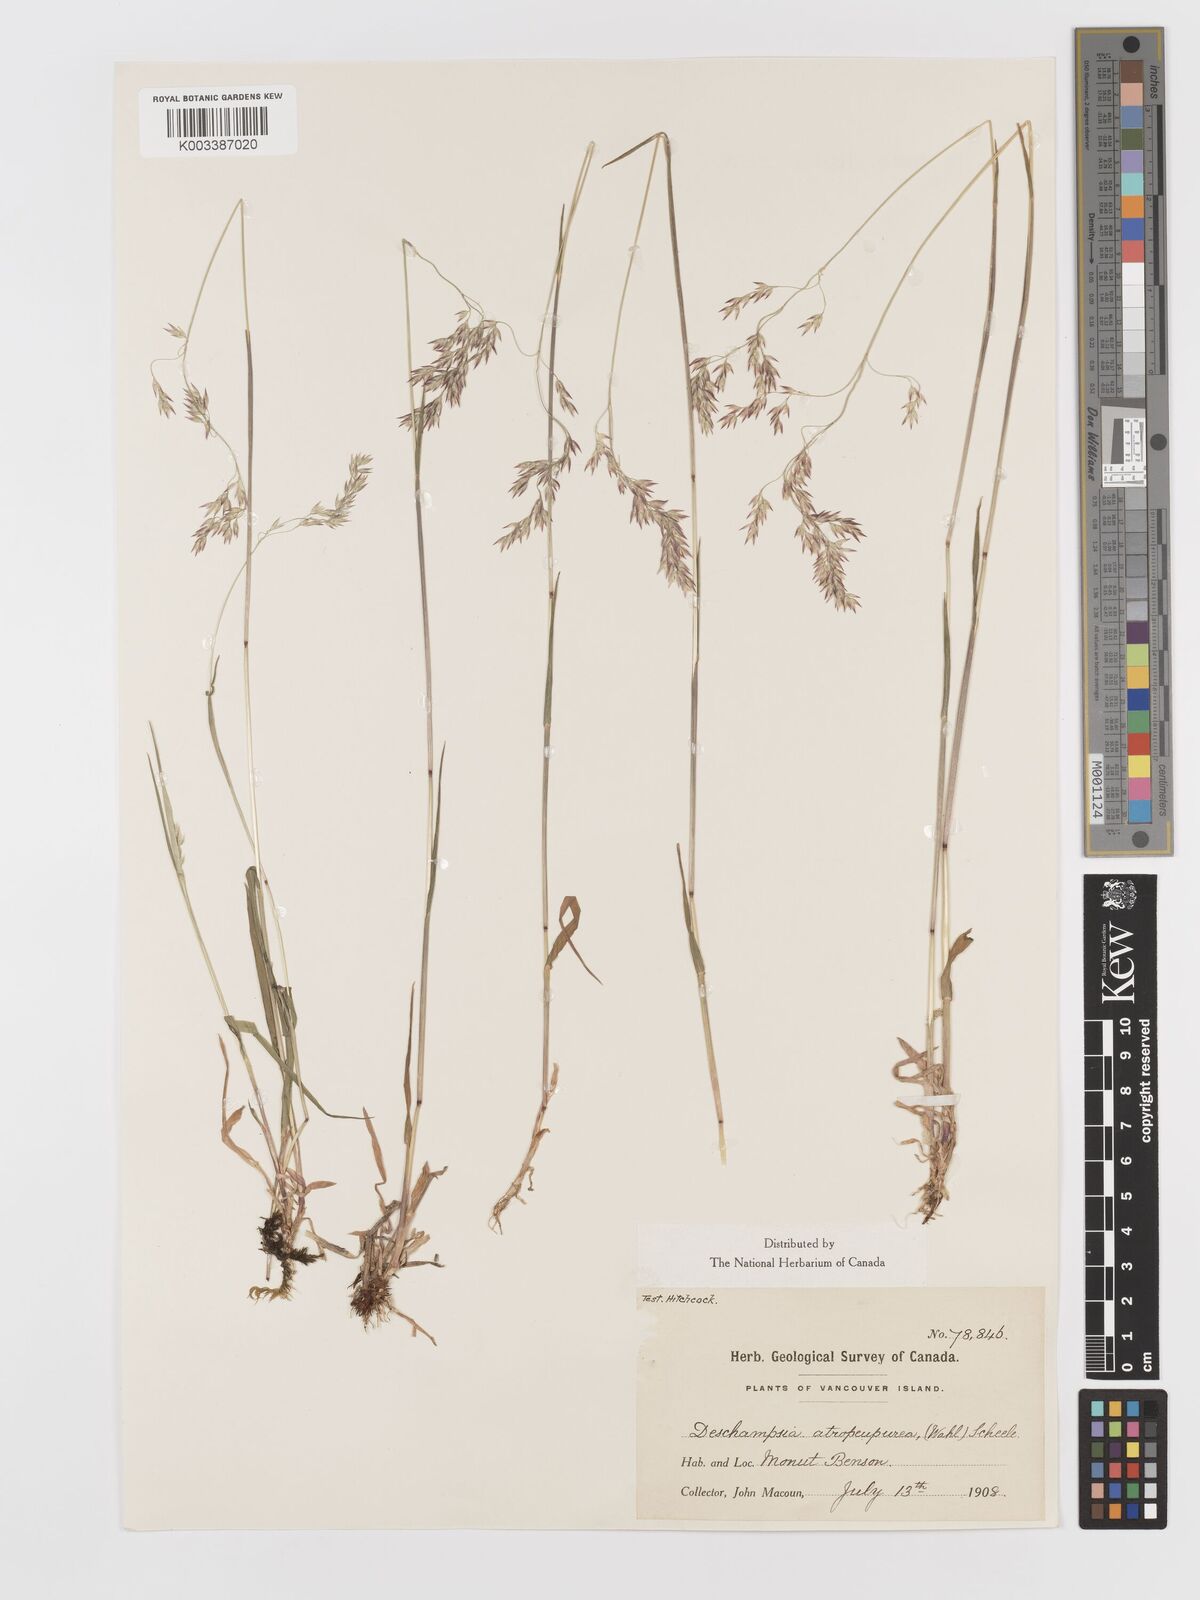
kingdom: Plantae
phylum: Tracheophyta
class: Liliopsida
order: Poales
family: Poaceae
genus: Vahlodea
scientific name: Vahlodea atropurpurea
